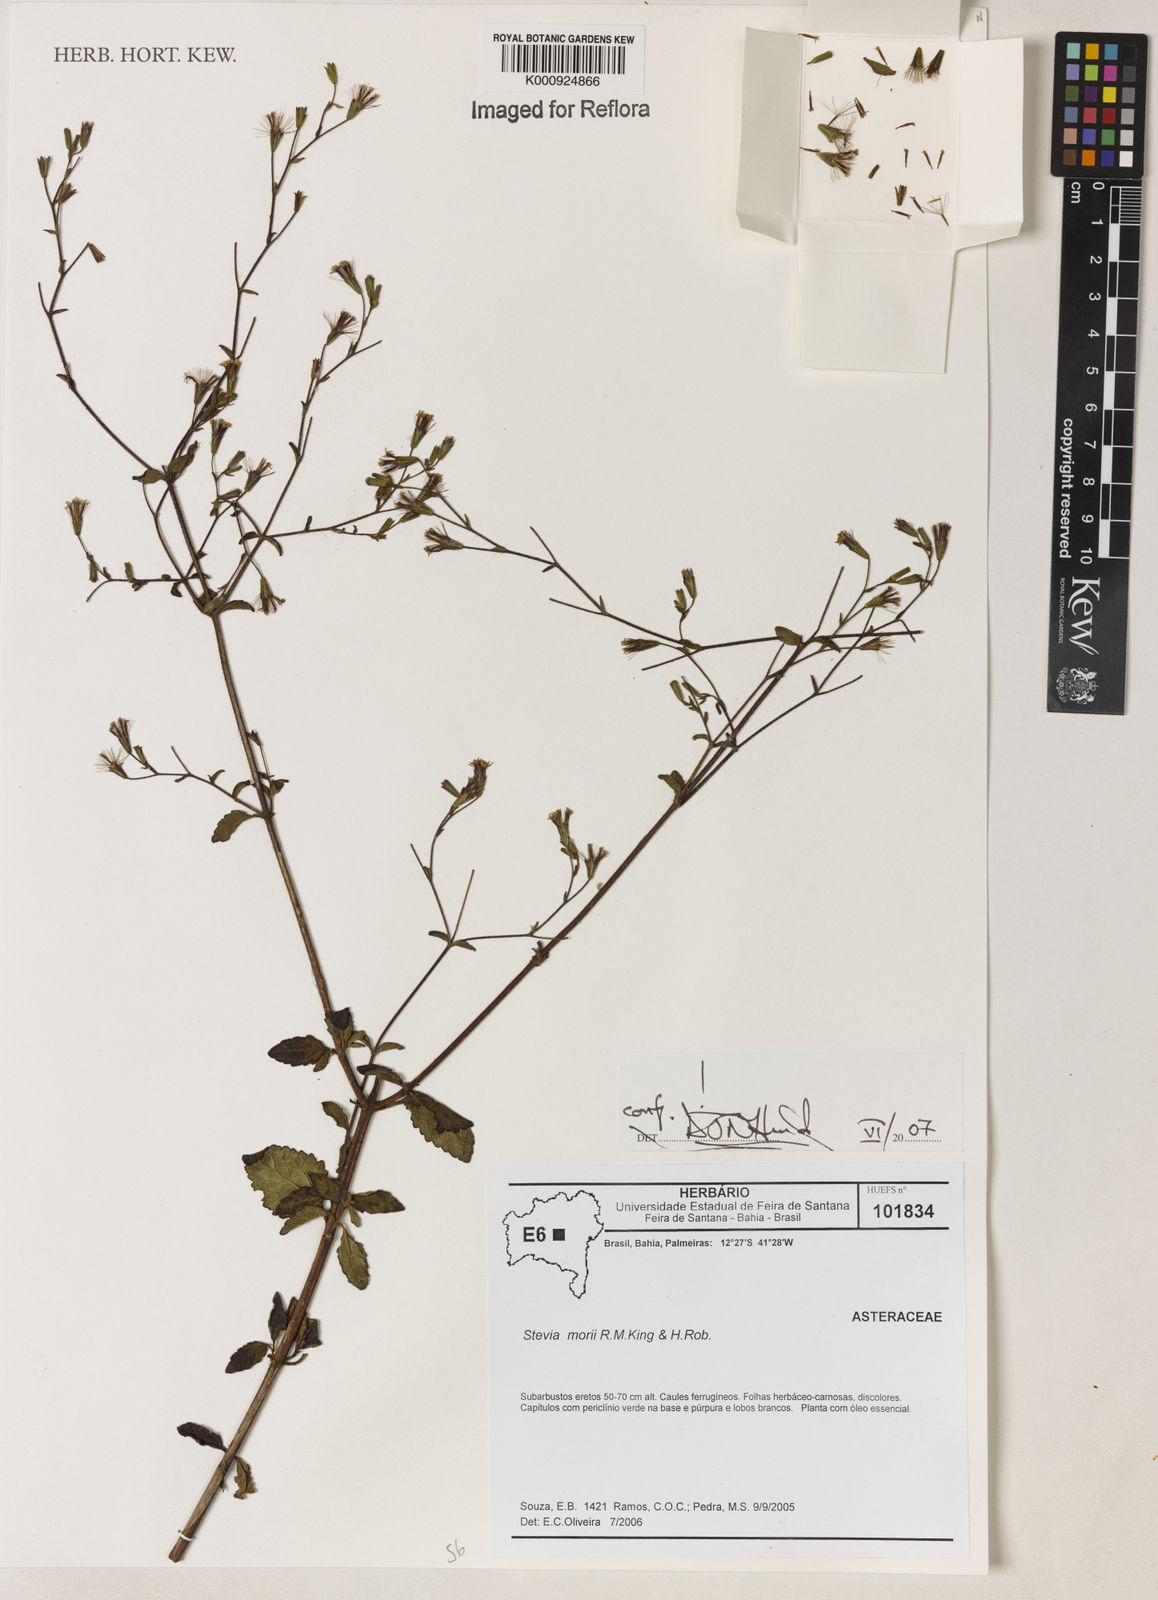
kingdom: Plantae
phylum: Tracheophyta
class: Magnoliopsida
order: Asterales
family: Asteraceae
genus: Stevia
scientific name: Stevia morii
